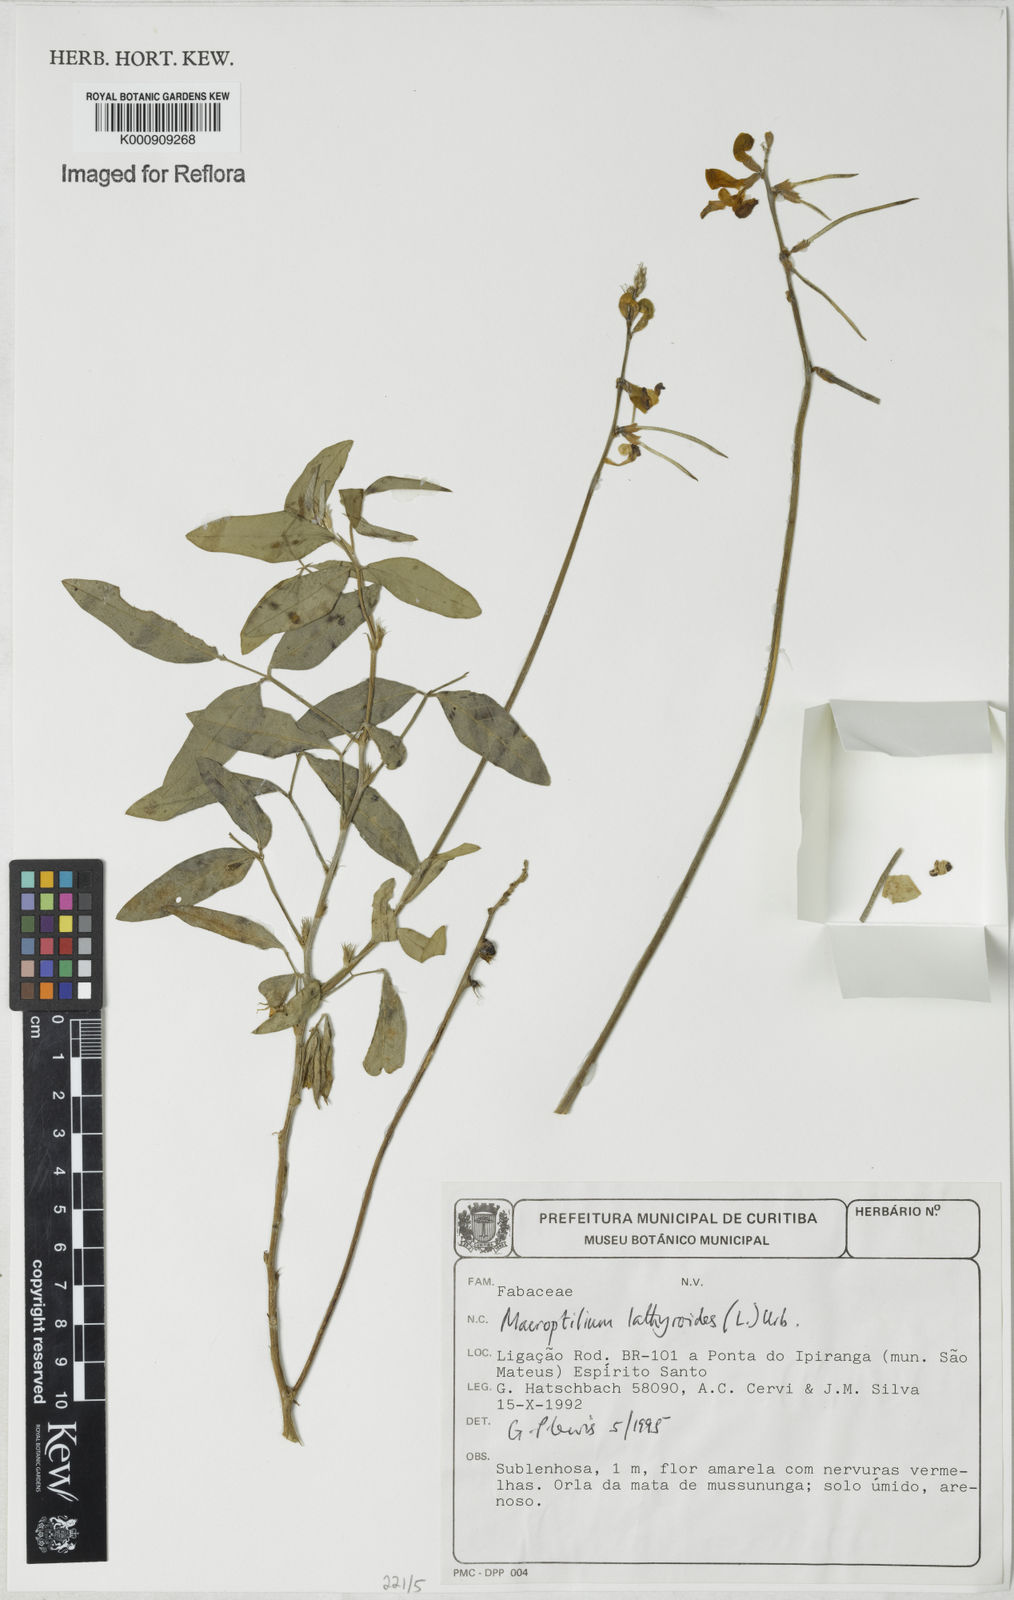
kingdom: Plantae
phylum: Tracheophyta
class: Magnoliopsida
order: Fabales
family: Fabaceae
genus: Macroptilium
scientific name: Macroptilium lathyroides
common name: Wild bushbean
